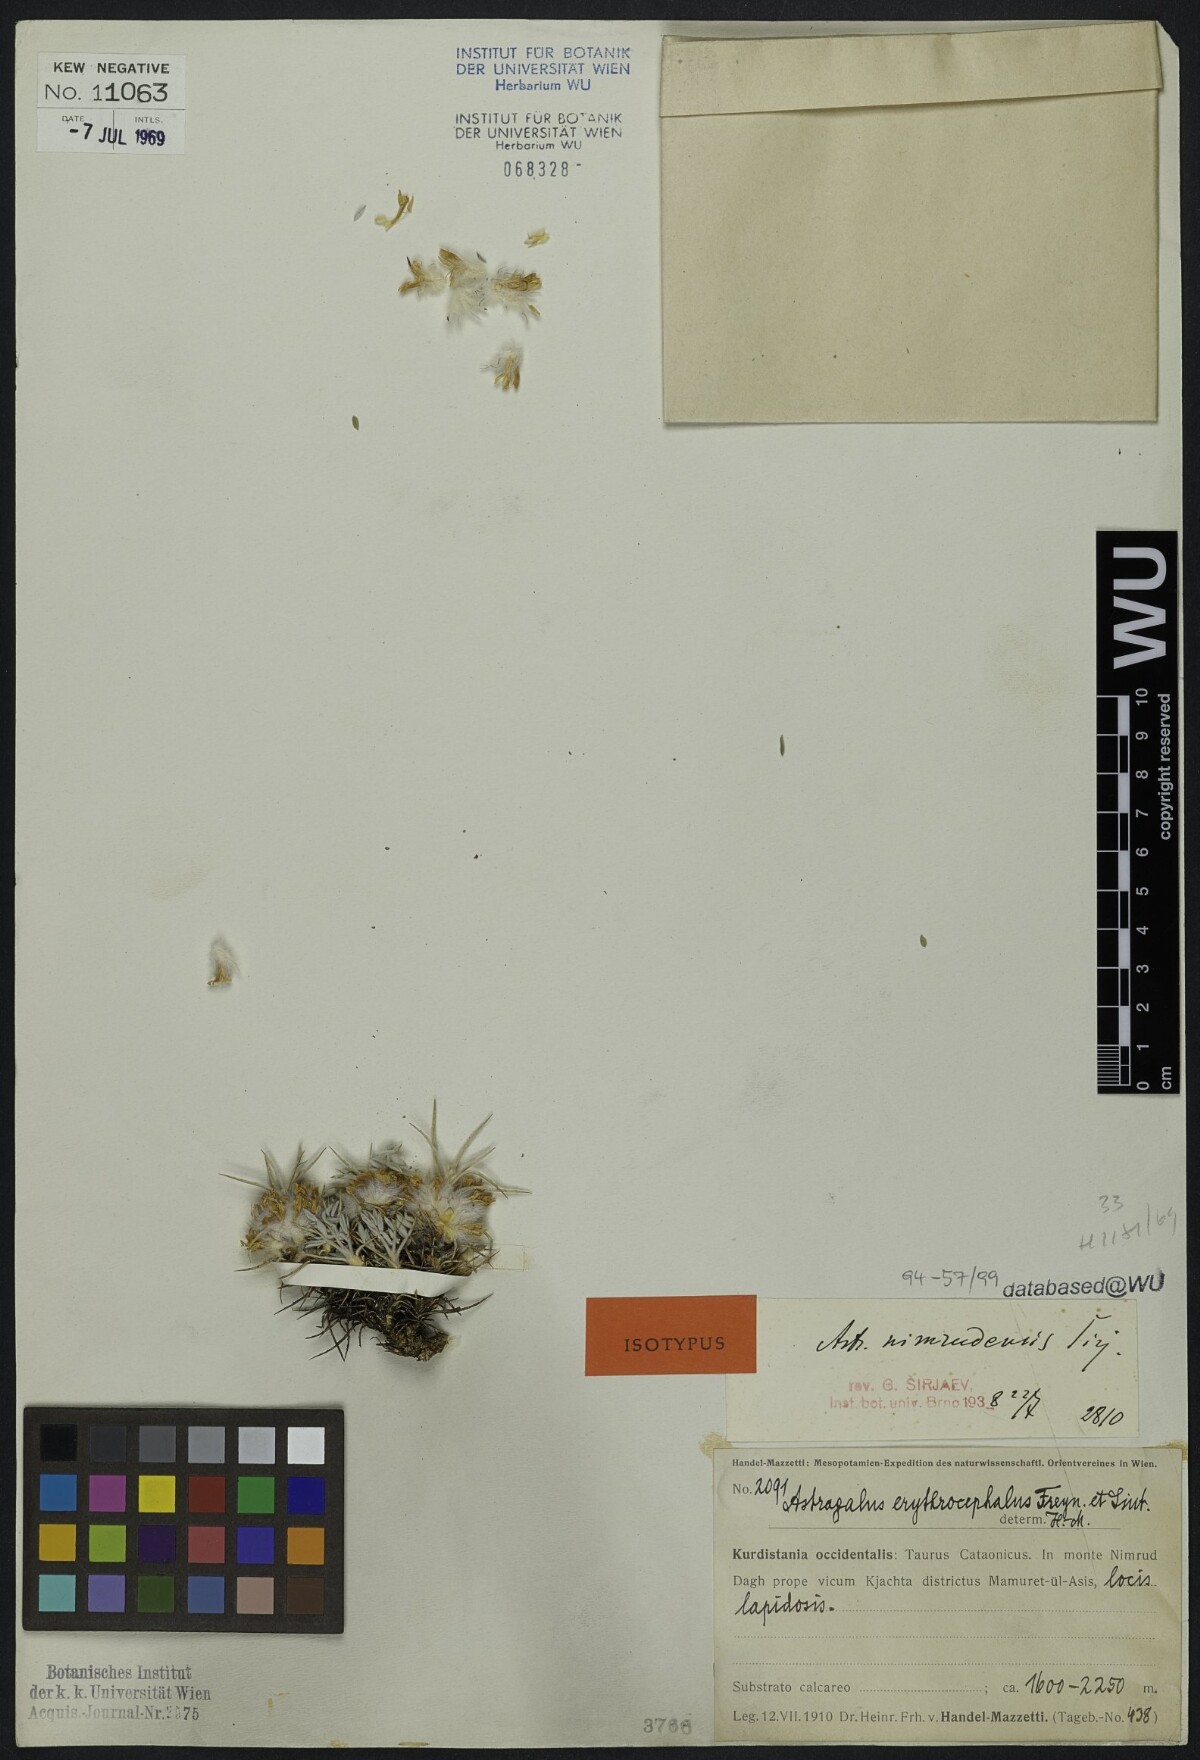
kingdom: Plantae
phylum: Tracheophyta
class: Magnoliopsida
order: Fabales
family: Fabaceae
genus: Astragalus
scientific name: Astragalus lamarckii
